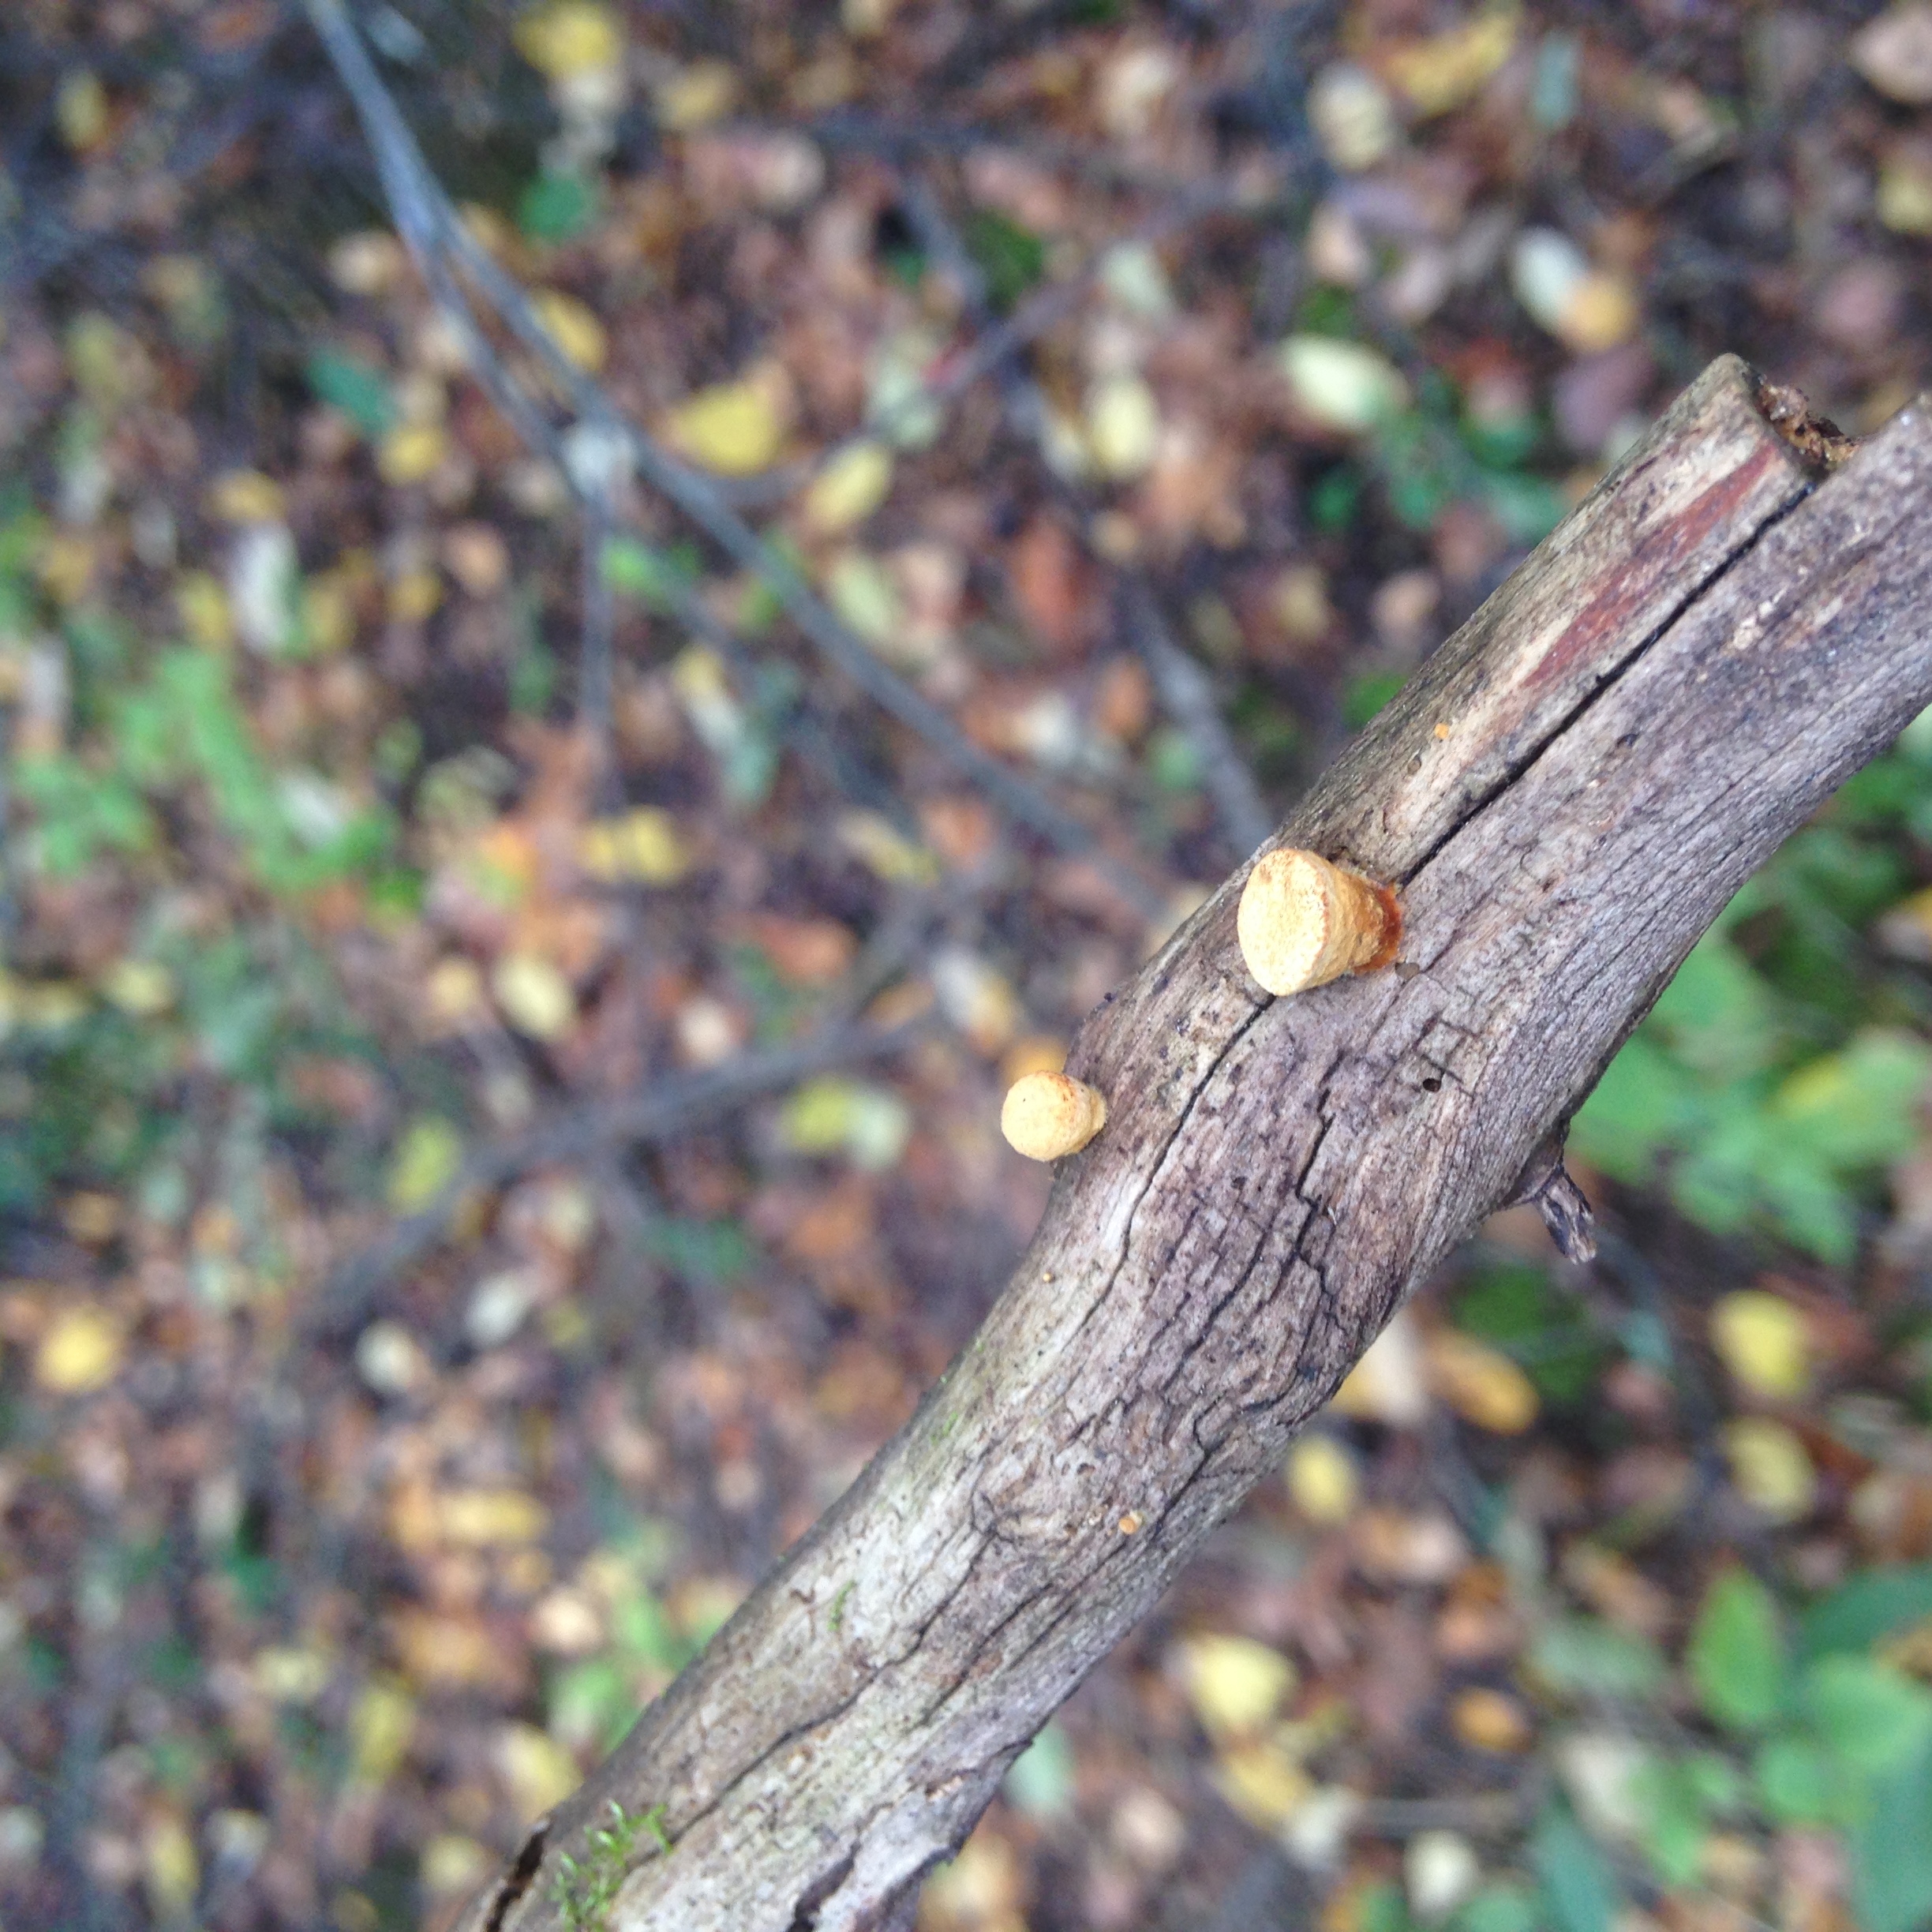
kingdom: Fungi
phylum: Basidiomycota
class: Agaricomycetes
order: Agaricales
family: Nidulariaceae
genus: Crucibulum
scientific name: Crucibulum laeve
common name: Common bird's nest
